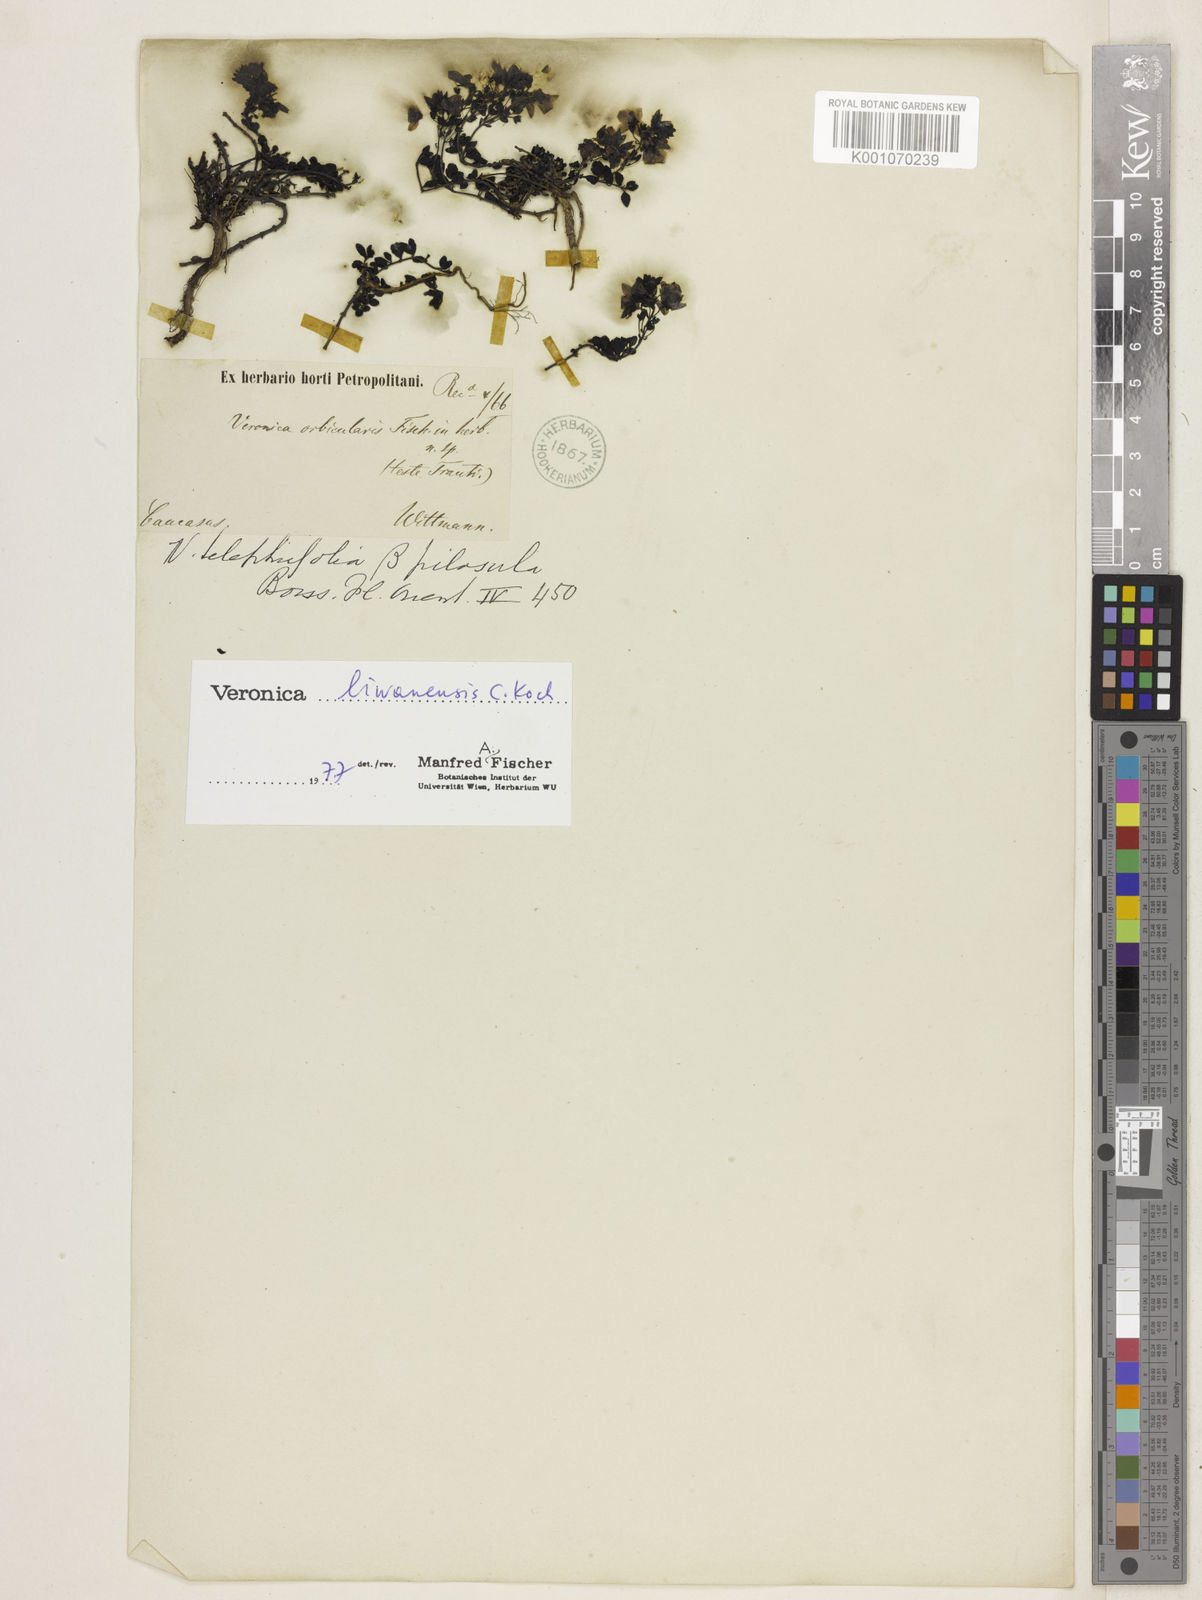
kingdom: Plantae
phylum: Tracheophyta
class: Magnoliopsida
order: Lamiales
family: Plantaginaceae
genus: Veronica
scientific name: Veronica liwanensis
